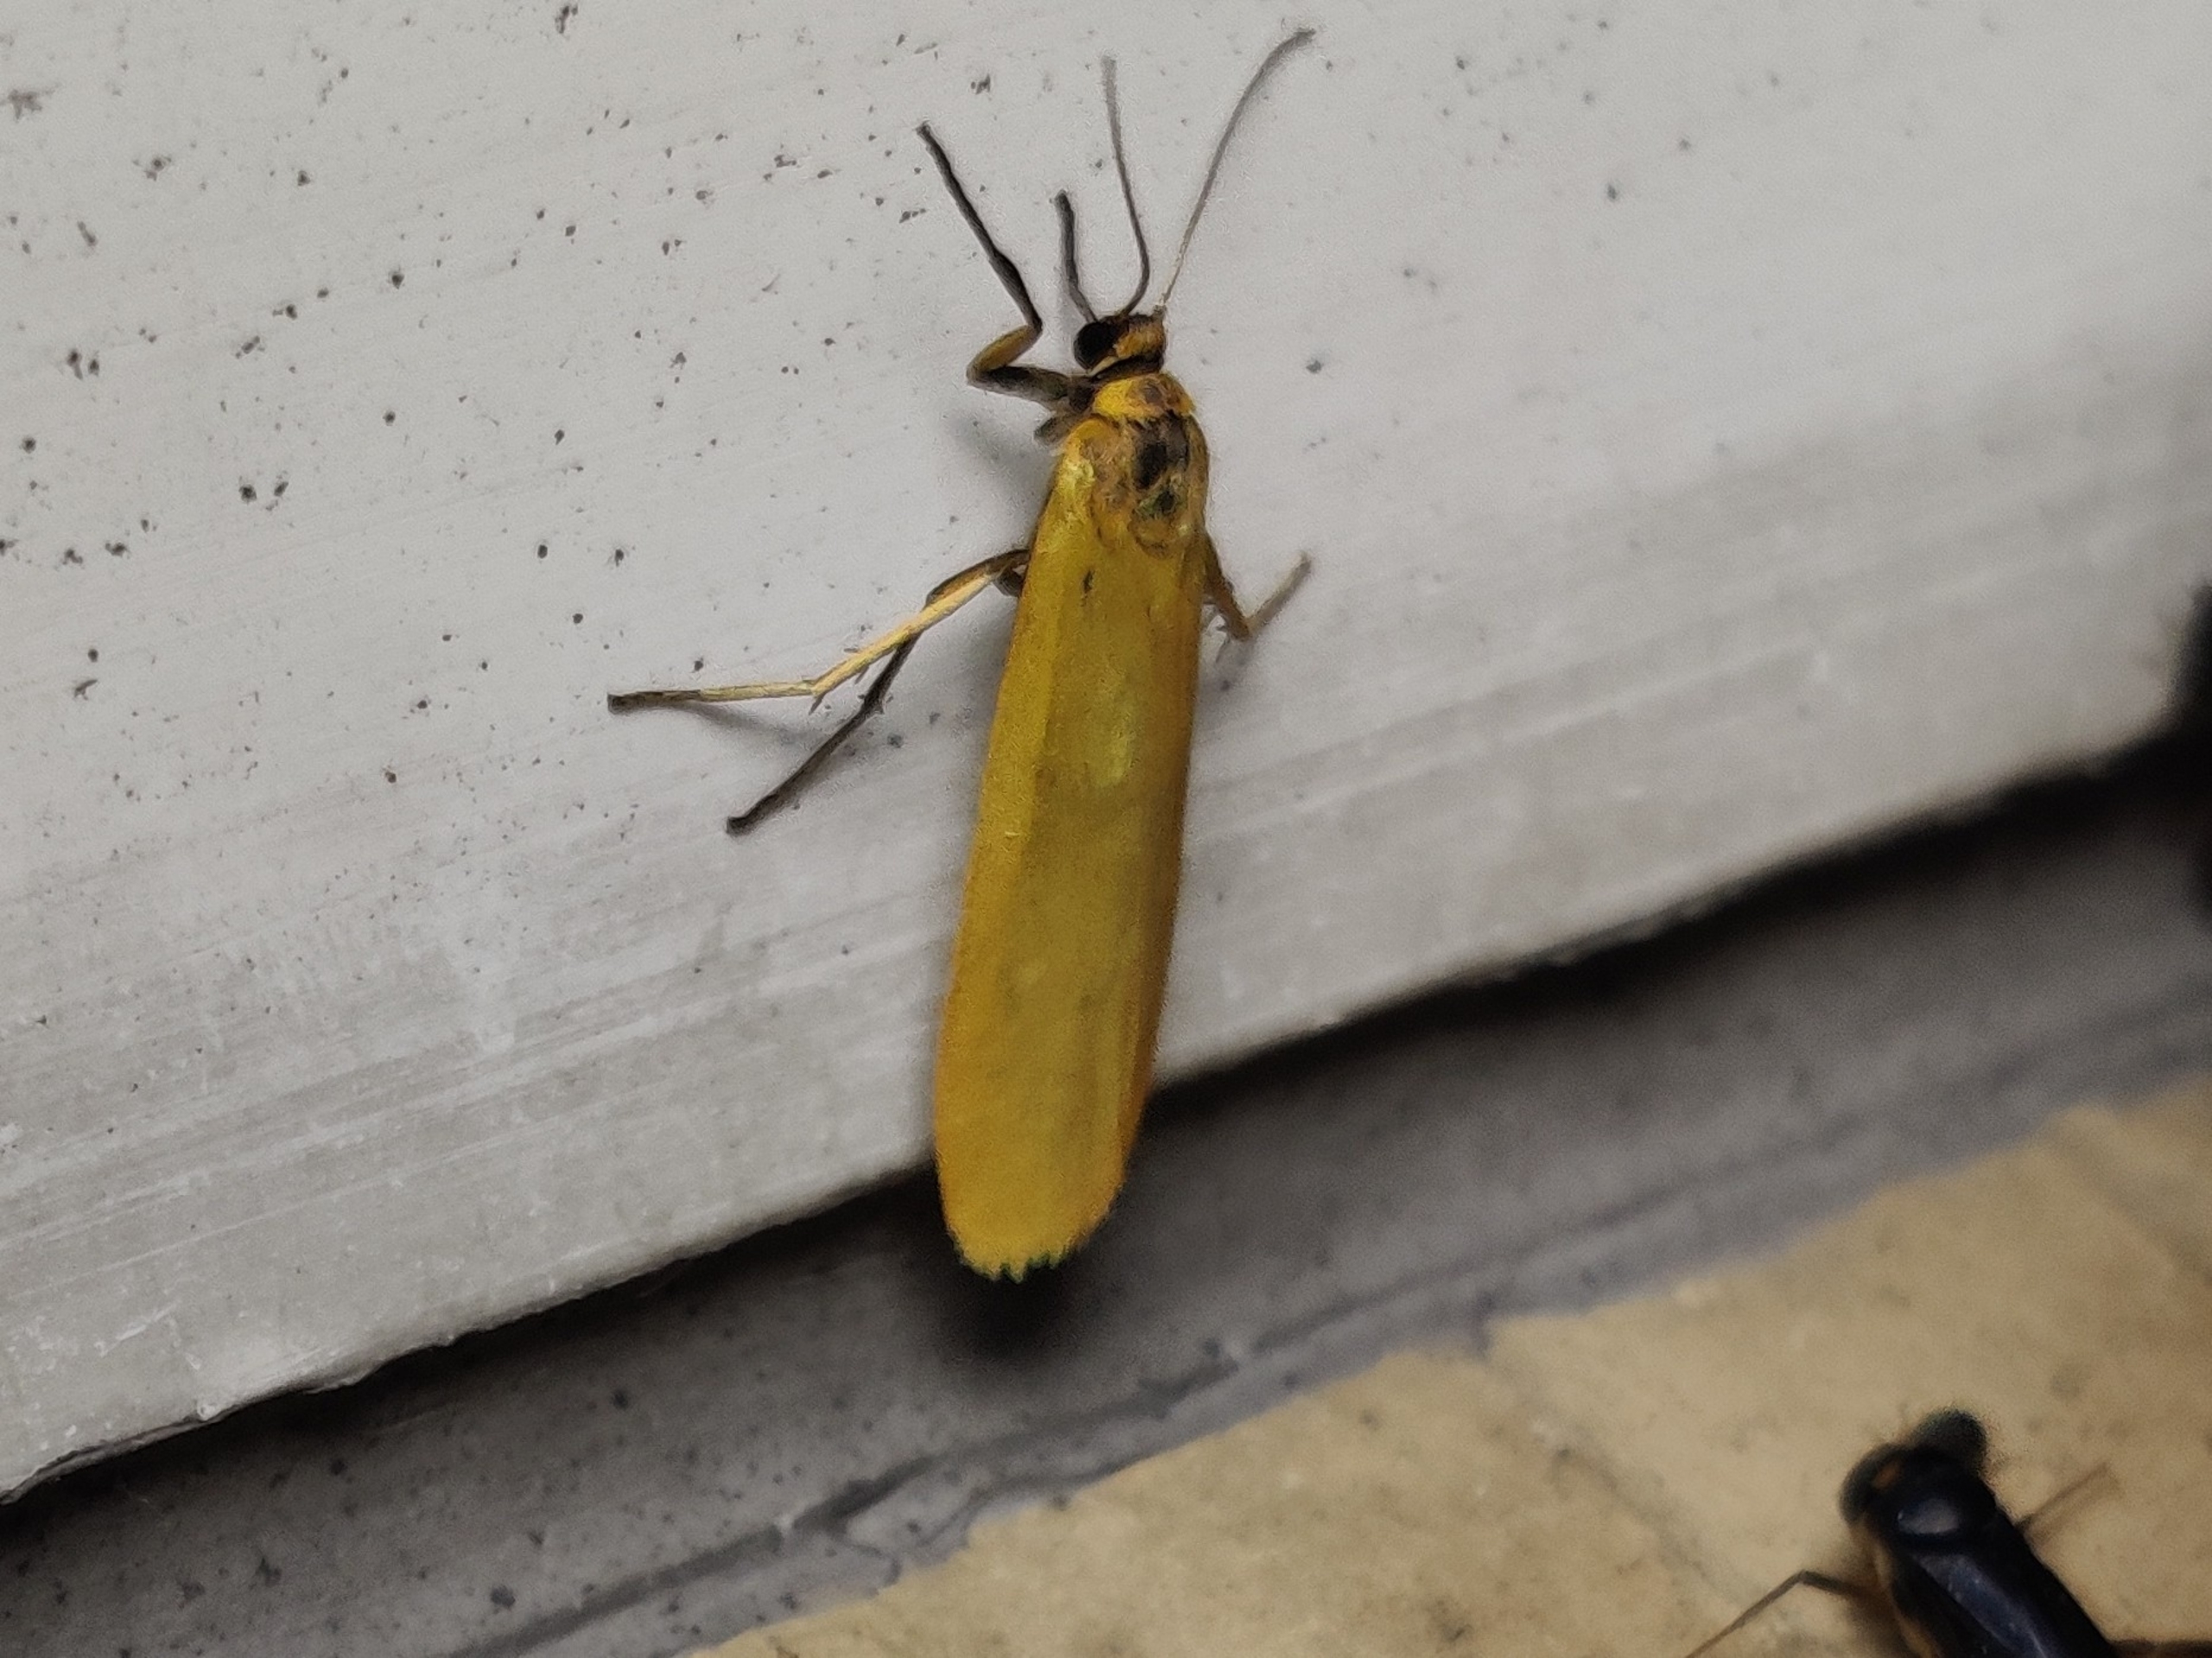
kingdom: Animalia
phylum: Arthropoda
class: Insecta
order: Lepidoptera
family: Erebidae
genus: Indalia
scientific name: Indalia lutarella
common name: Lergul lavspinder
